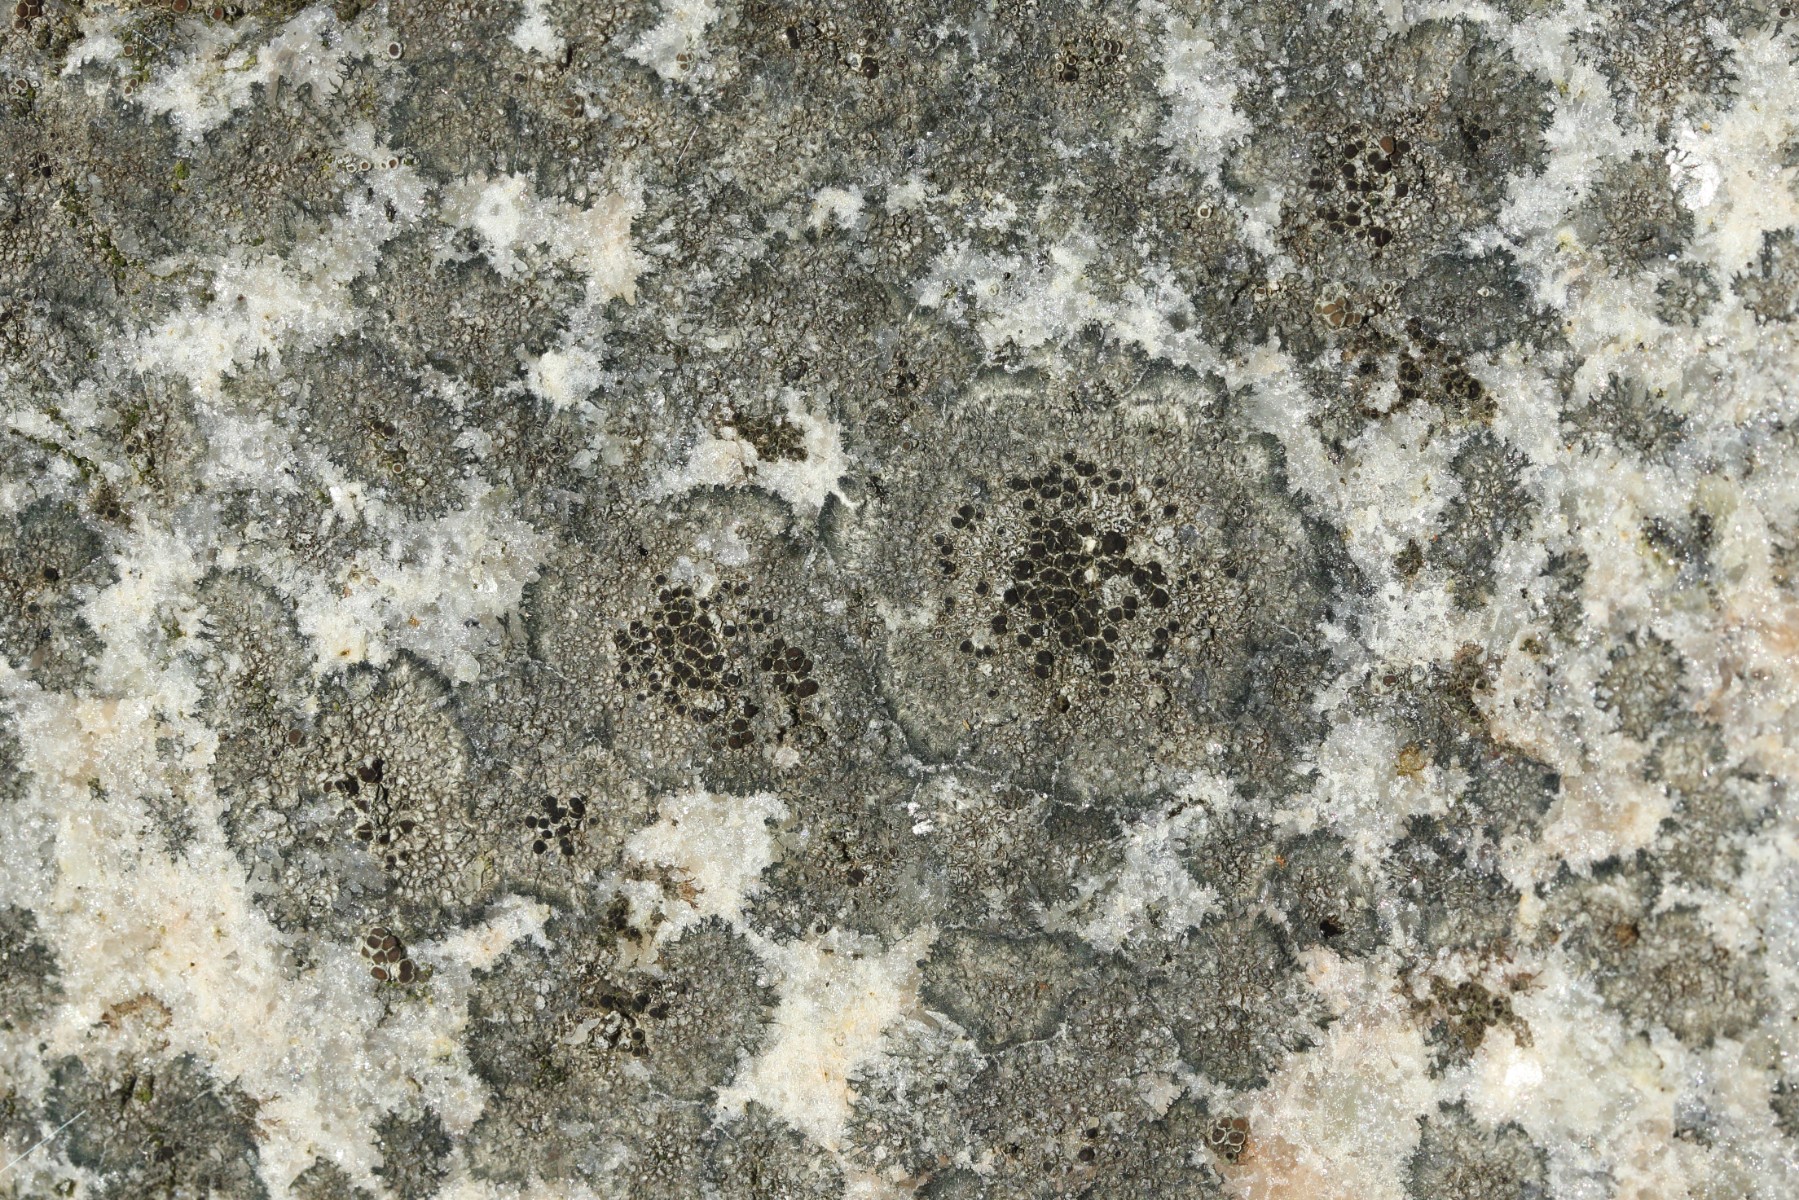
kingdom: Fungi
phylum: Ascomycota
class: Lecanoromycetes
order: Lecanorales
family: Lecanoraceae
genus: Lecanora
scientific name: Lecanora helicopis
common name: salt-kantskivelav
